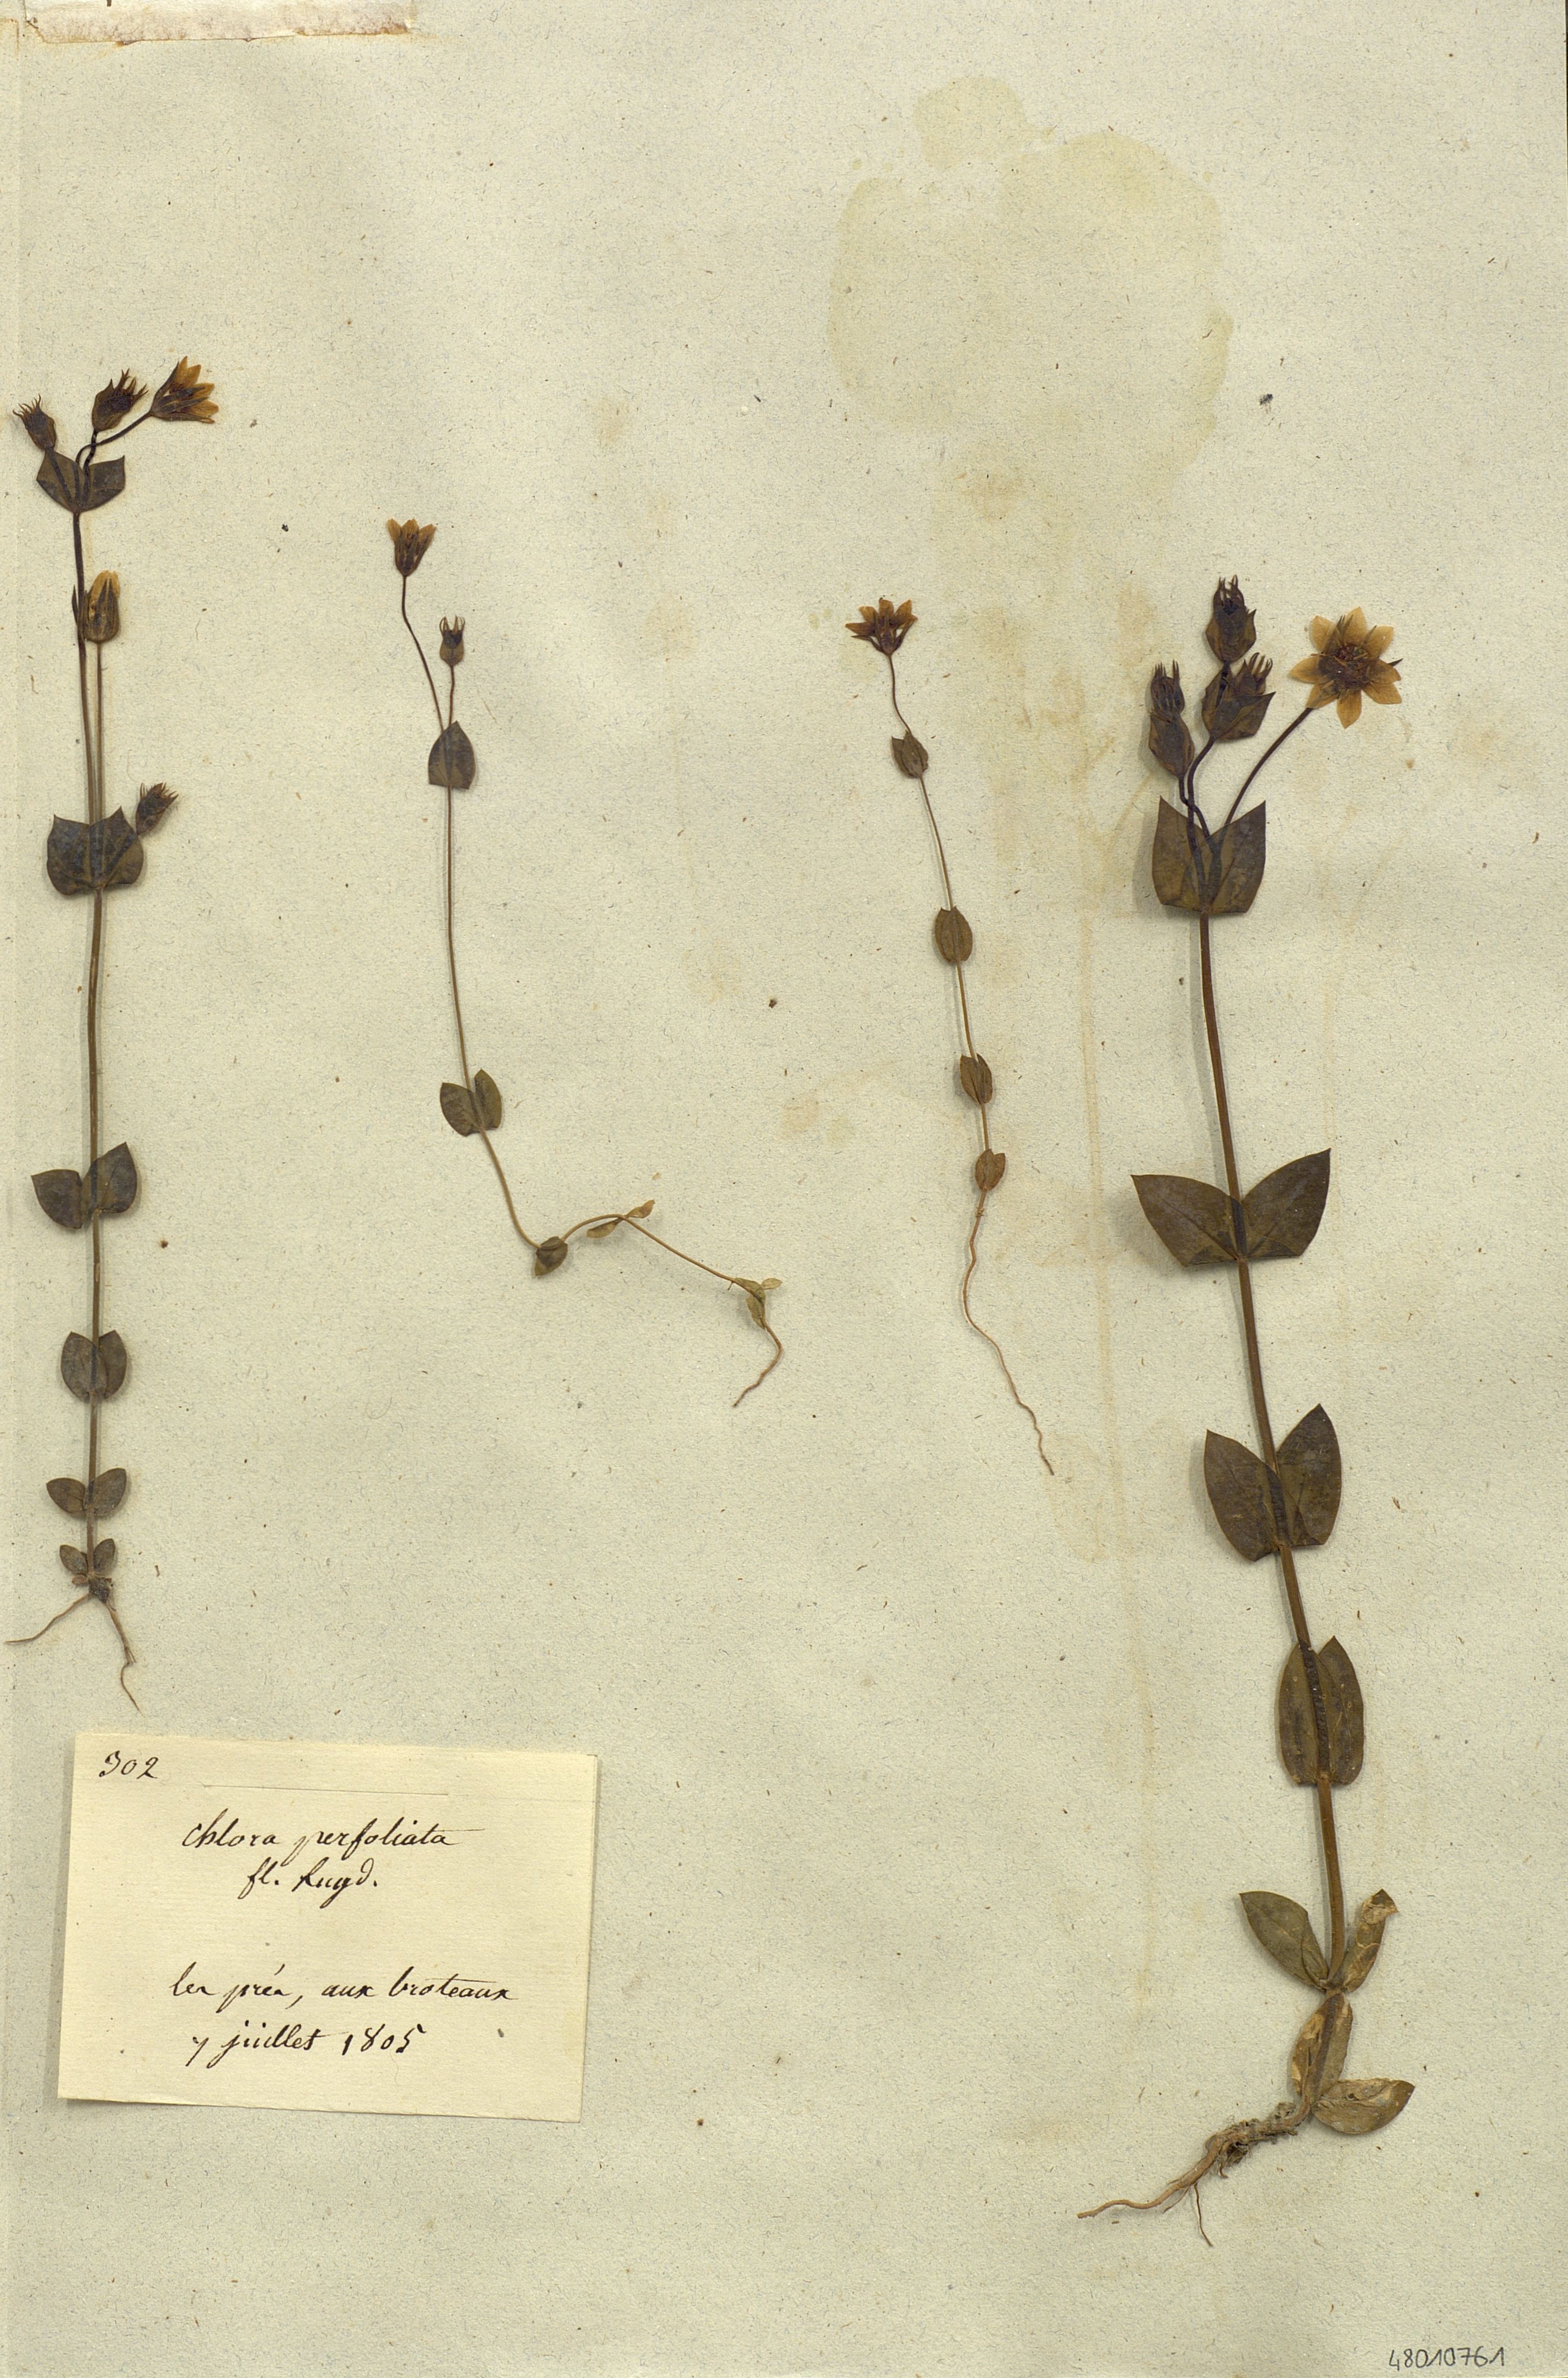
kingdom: Plantae
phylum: Tracheophyta
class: Magnoliopsida
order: Gentianales
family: Gentianaceae
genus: Blackstonia
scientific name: Blackstonia
